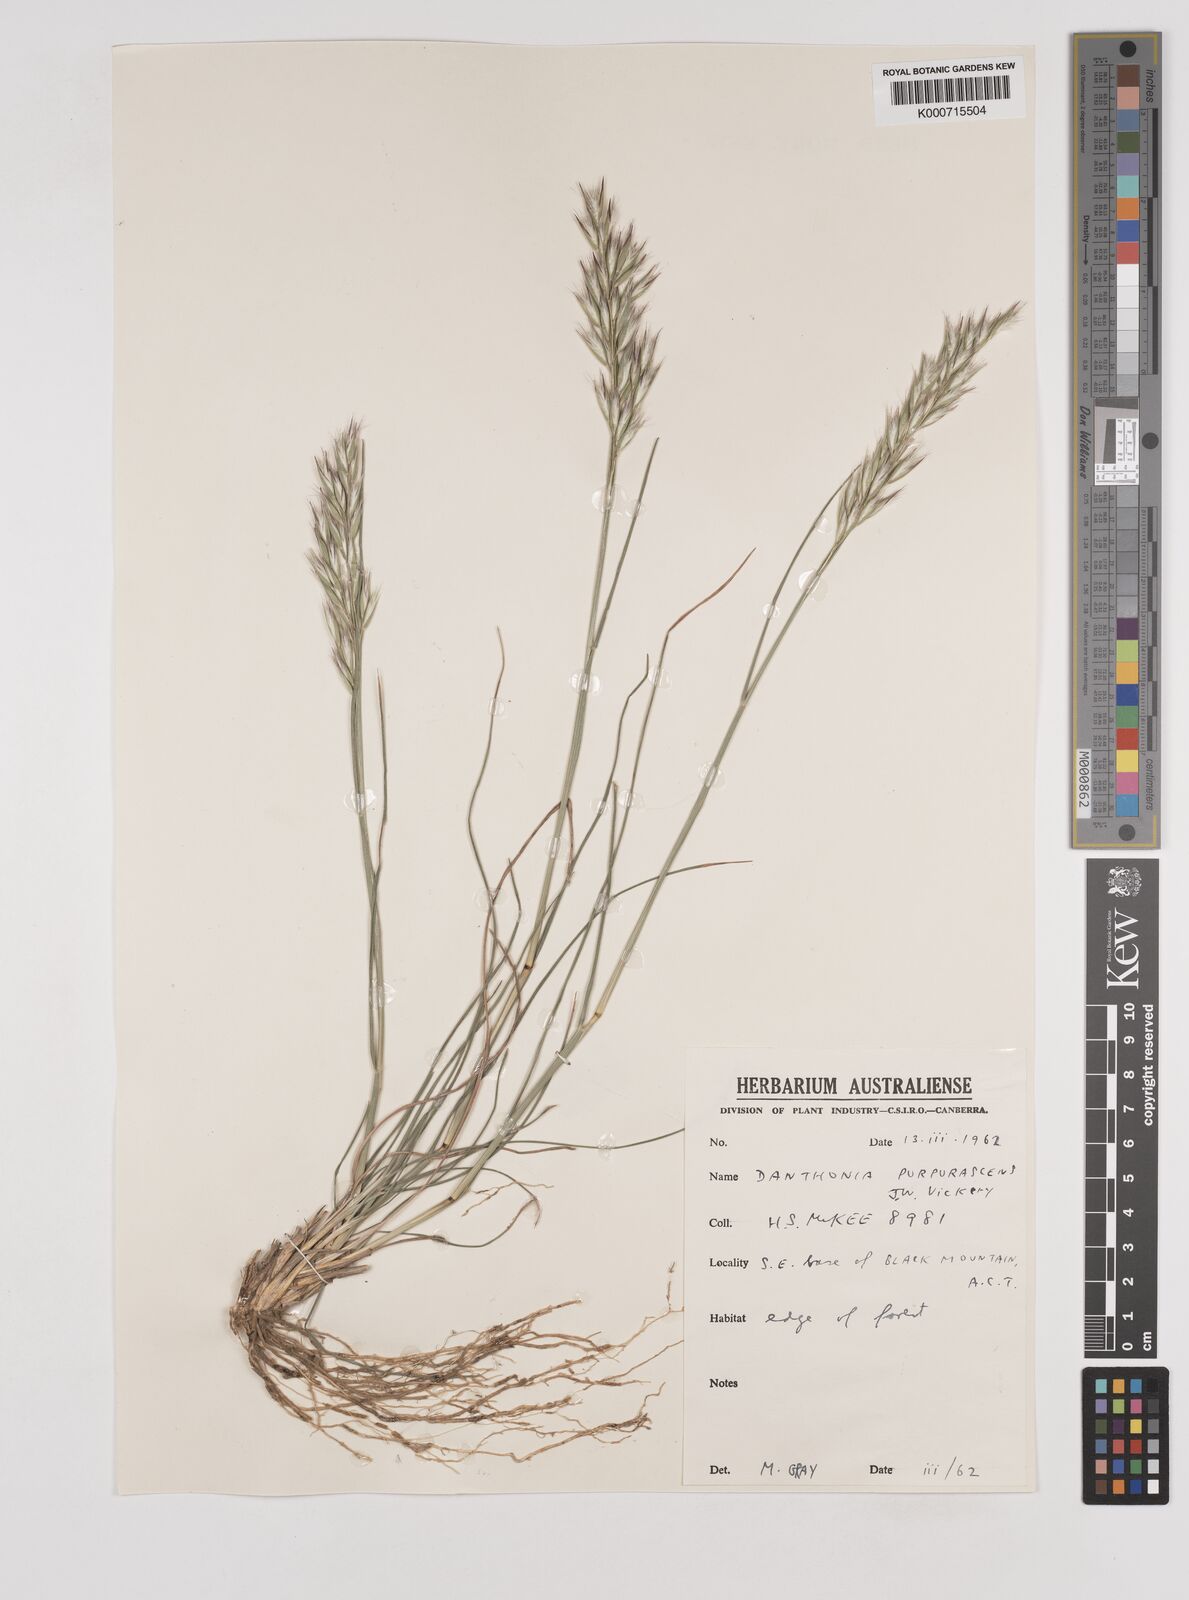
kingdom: Plantae
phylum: Tracheophyta
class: Liliopsida
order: Poales
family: Poaceae
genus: Rytidosperma
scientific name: Rytidosperma tenuius
